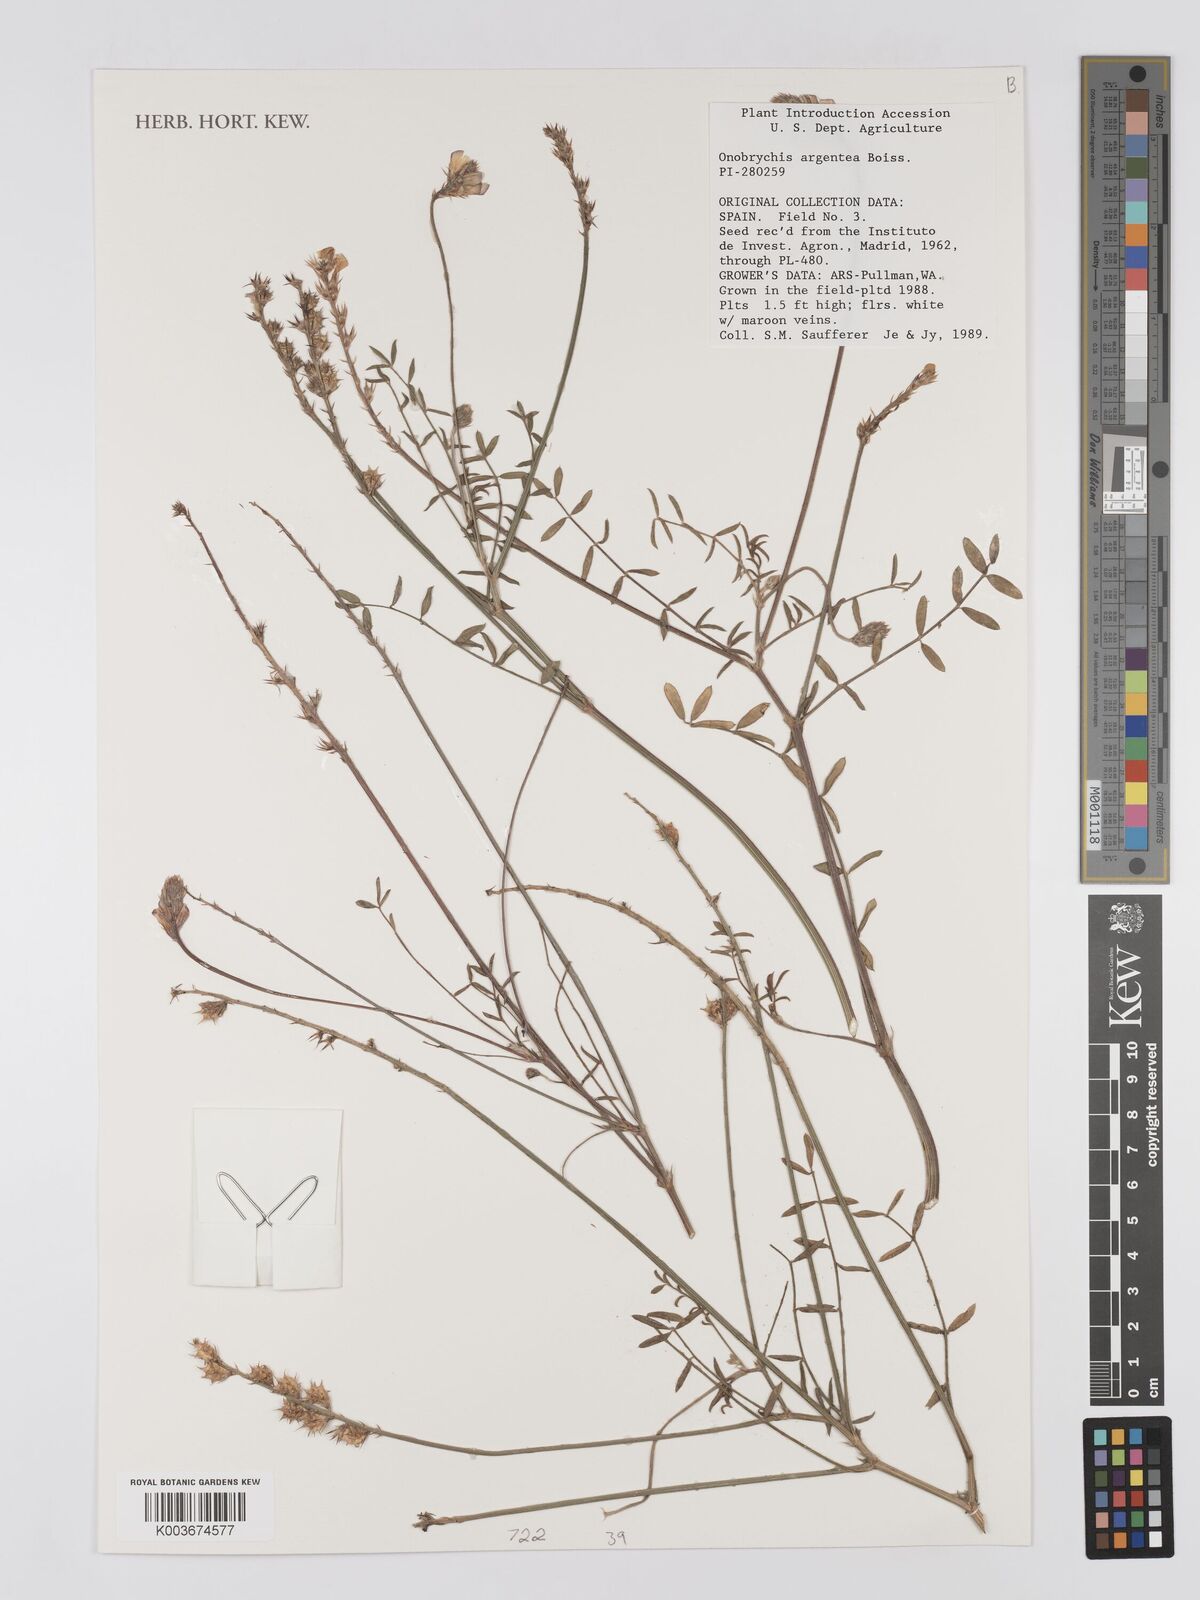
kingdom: Plantae
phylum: Tracheophyta
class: Magnoliopsida
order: Fabales
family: Fabaceae
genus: Onobrychis
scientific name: Onobrychis argentea
